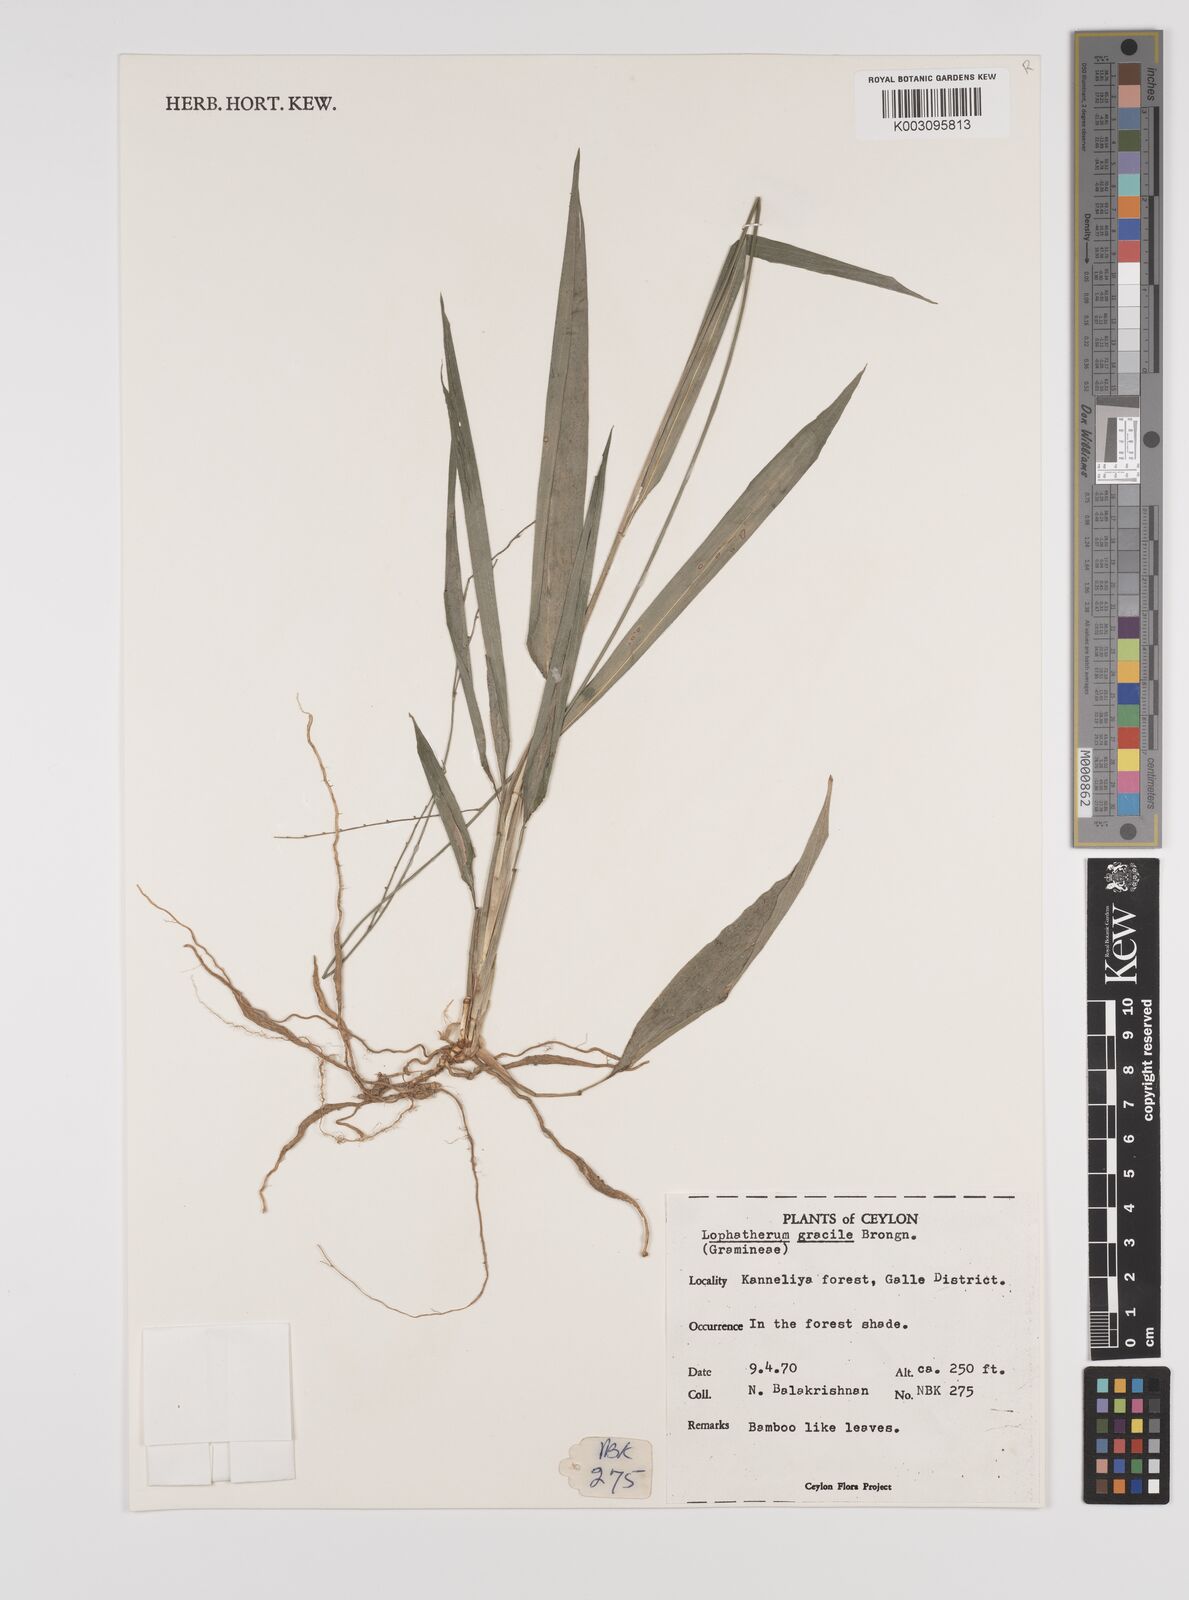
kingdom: Plantae
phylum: Tracheophyta
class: Liliopsida
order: Poales
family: Poaceae
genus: Lophatherum
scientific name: Lophatherum gracile
